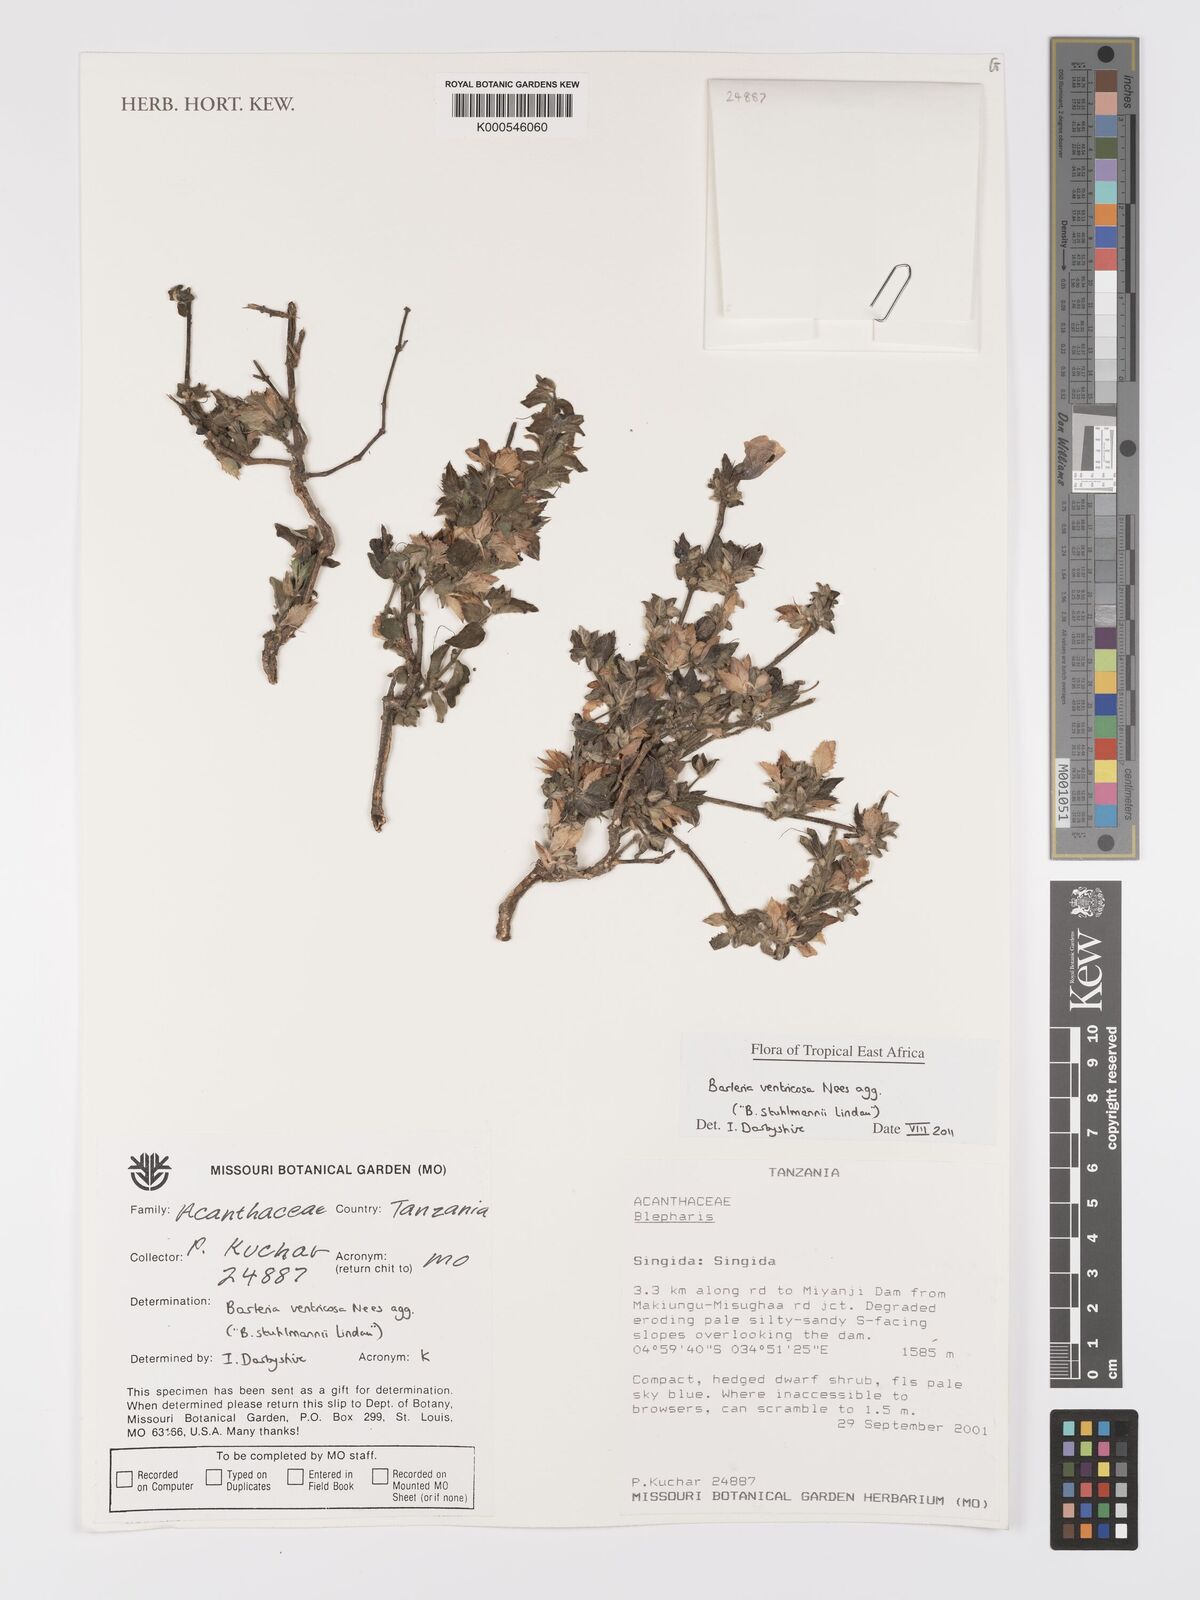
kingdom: Plantae
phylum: Tracheophyta
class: Magnoliopsida
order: Lamiales
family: Acanthaceae
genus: Barleria
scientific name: Barleria ventricosa
